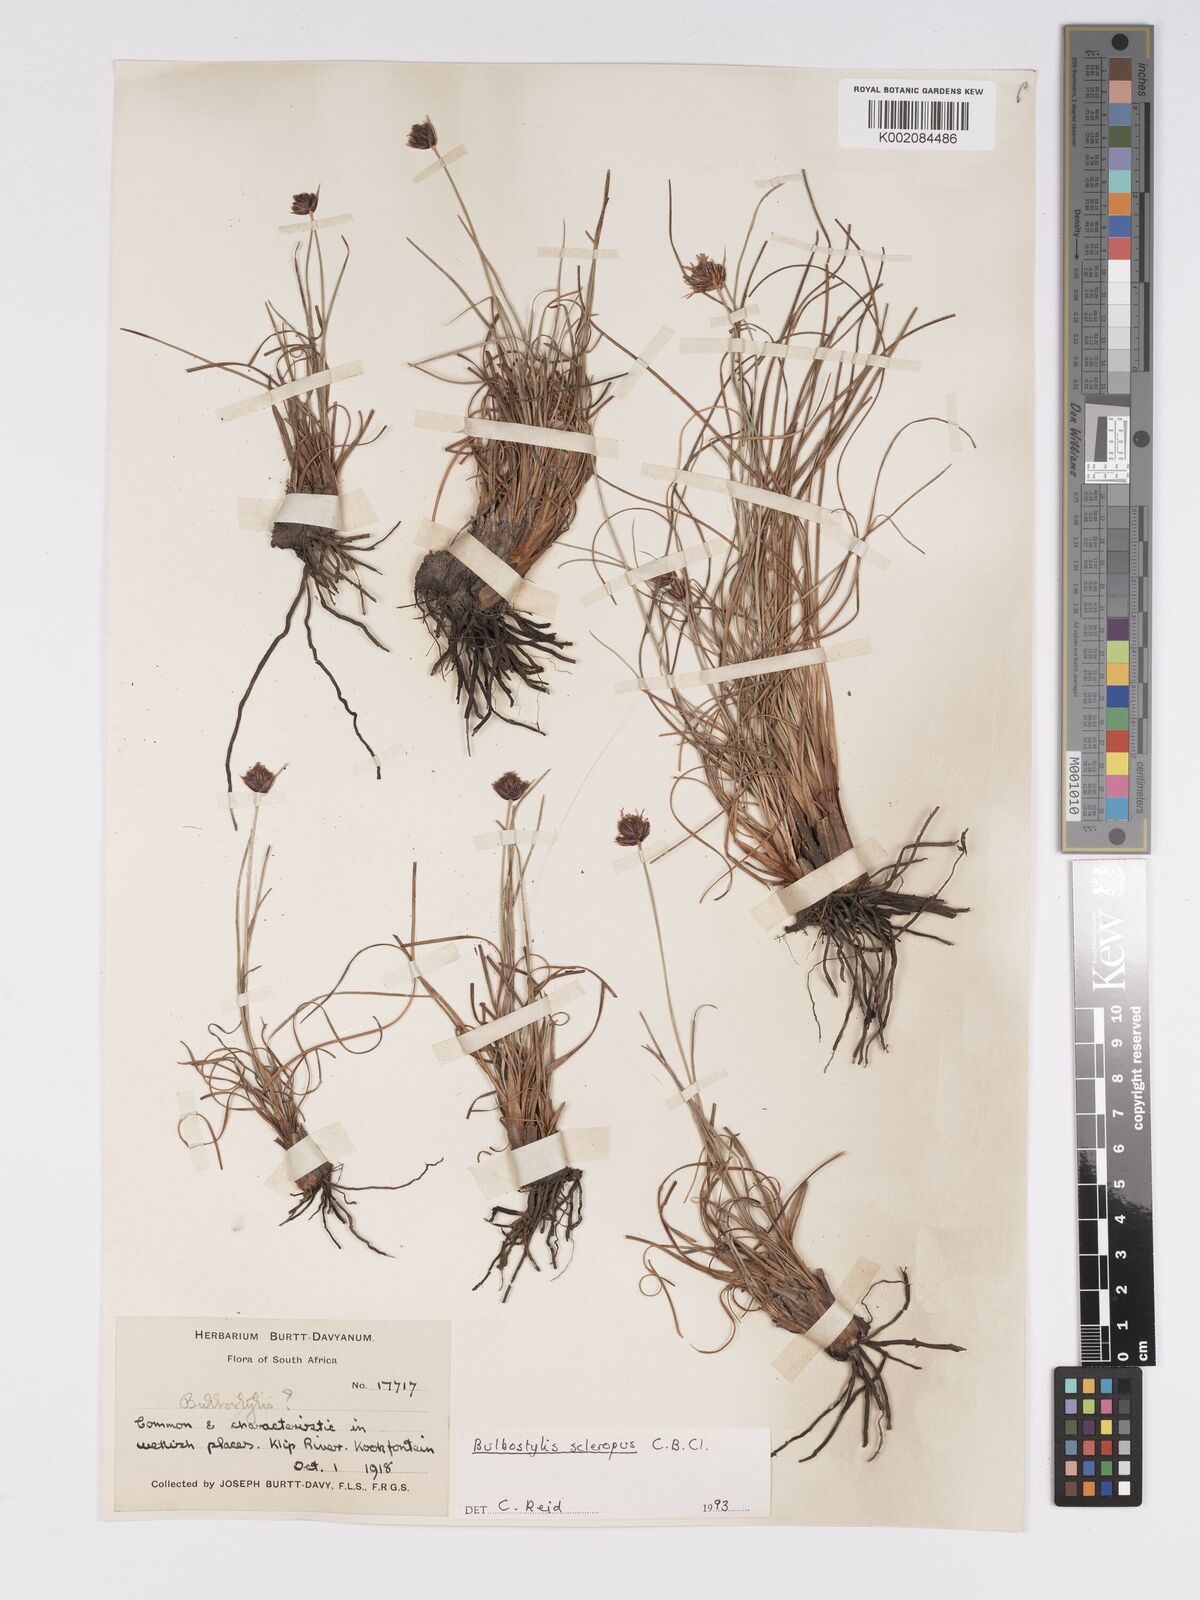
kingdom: Plantae
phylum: Tracheophyta
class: Liliopsida
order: Poales
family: Cyperaceae
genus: Bulbostylis
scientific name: Bulbostylis schoenoides
